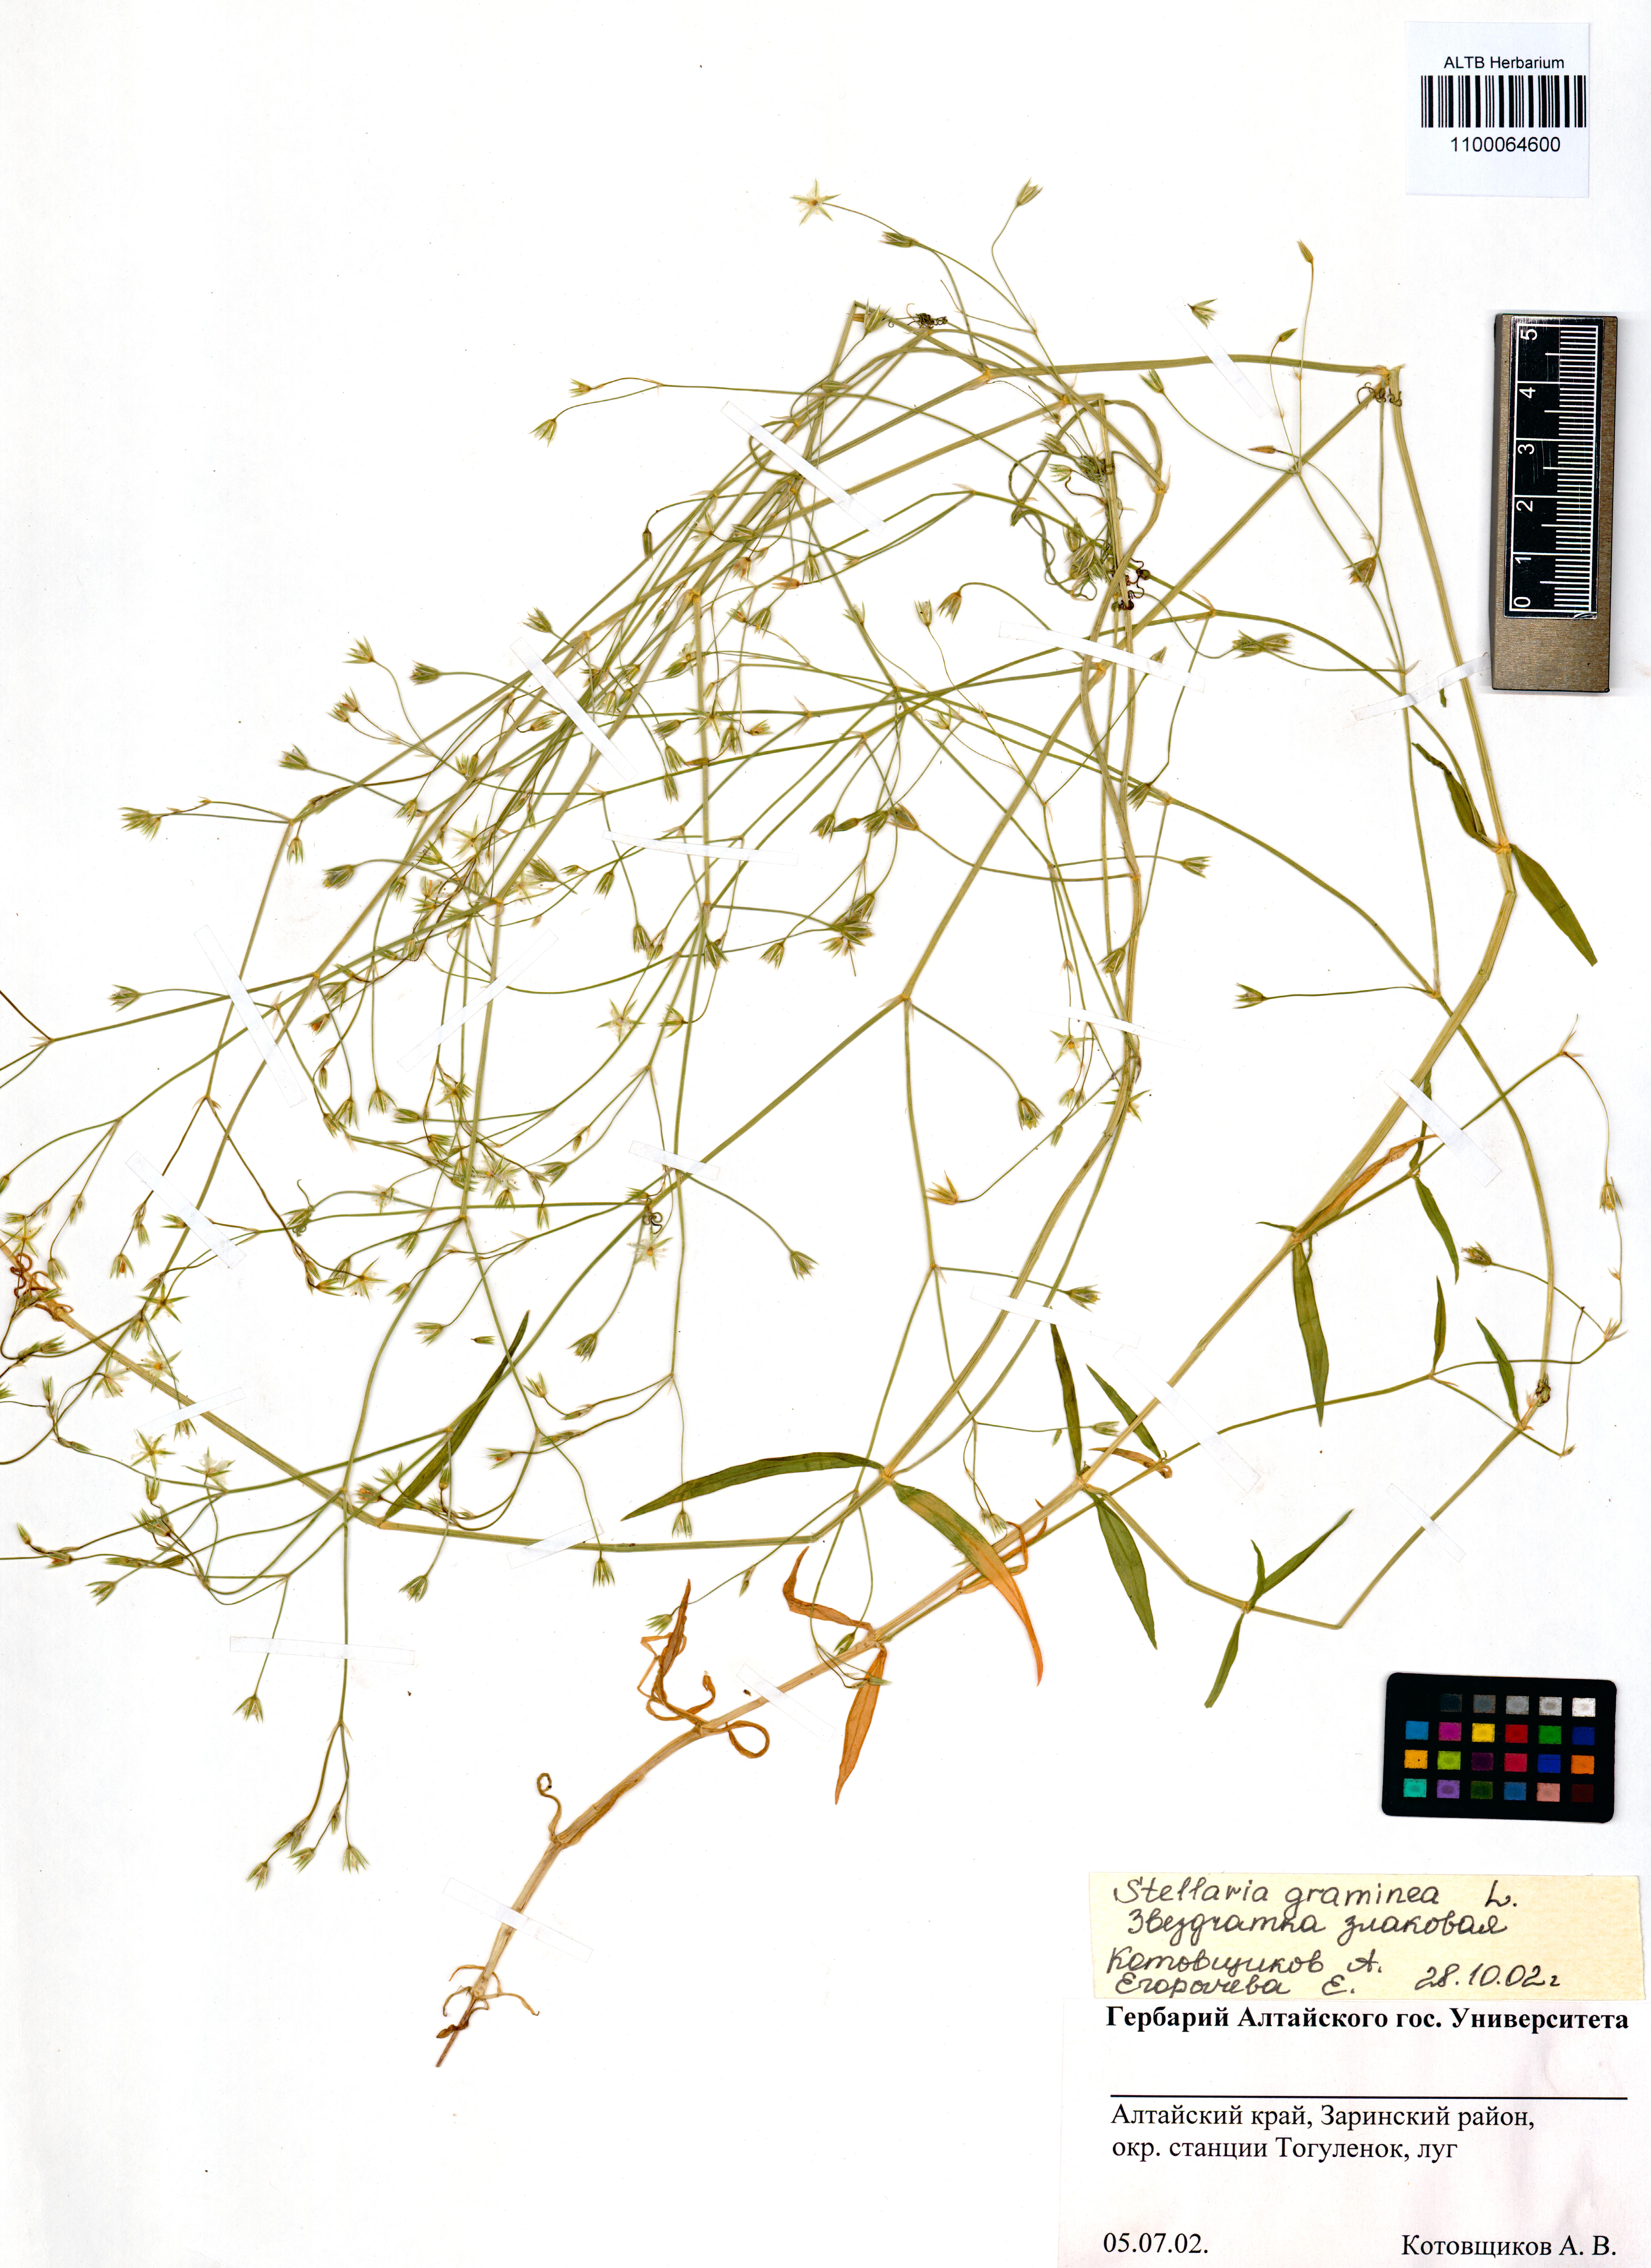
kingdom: Plantae
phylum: Tracheophyta
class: Magnoliopsida
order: Caryophyllales
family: Caryophyllaceae
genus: Stellaria
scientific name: Stellaria graminea
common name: Grass-like starwort
